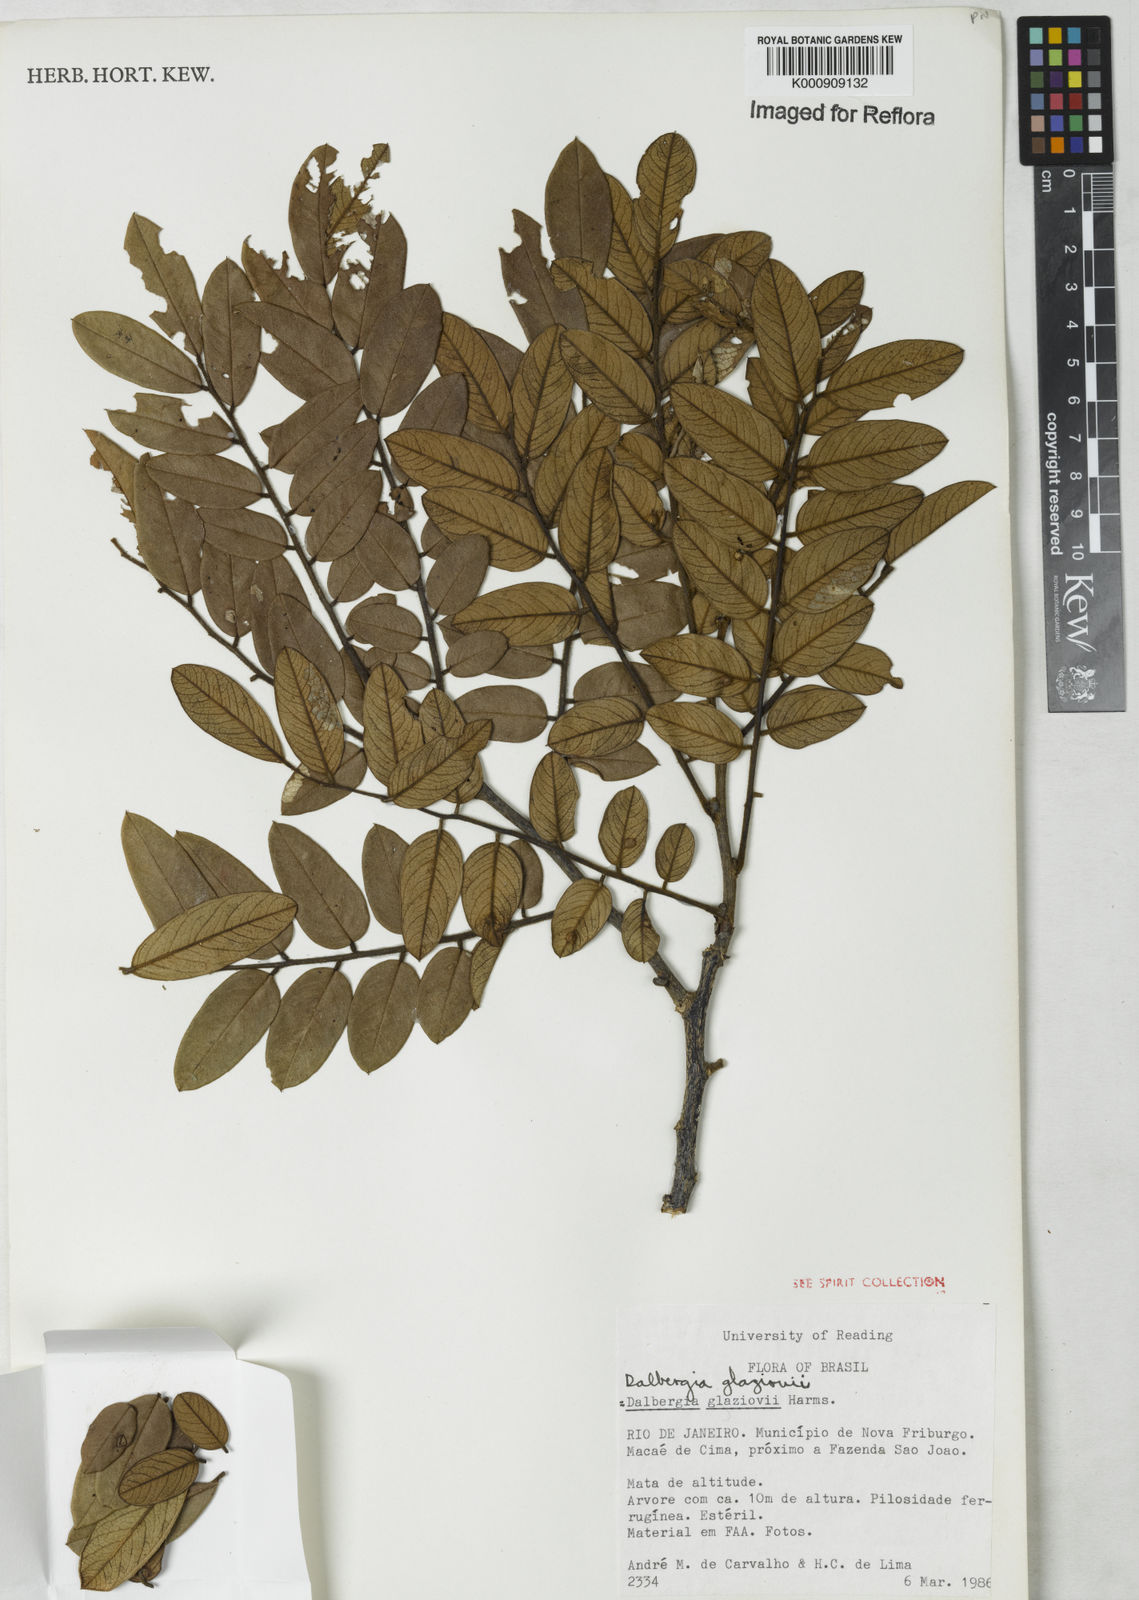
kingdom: Plantae
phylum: Tracheophyta
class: Magnoliopsida
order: Fabales
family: Fabaceae
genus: Dalbergia
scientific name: Dalbergia glaziovii
